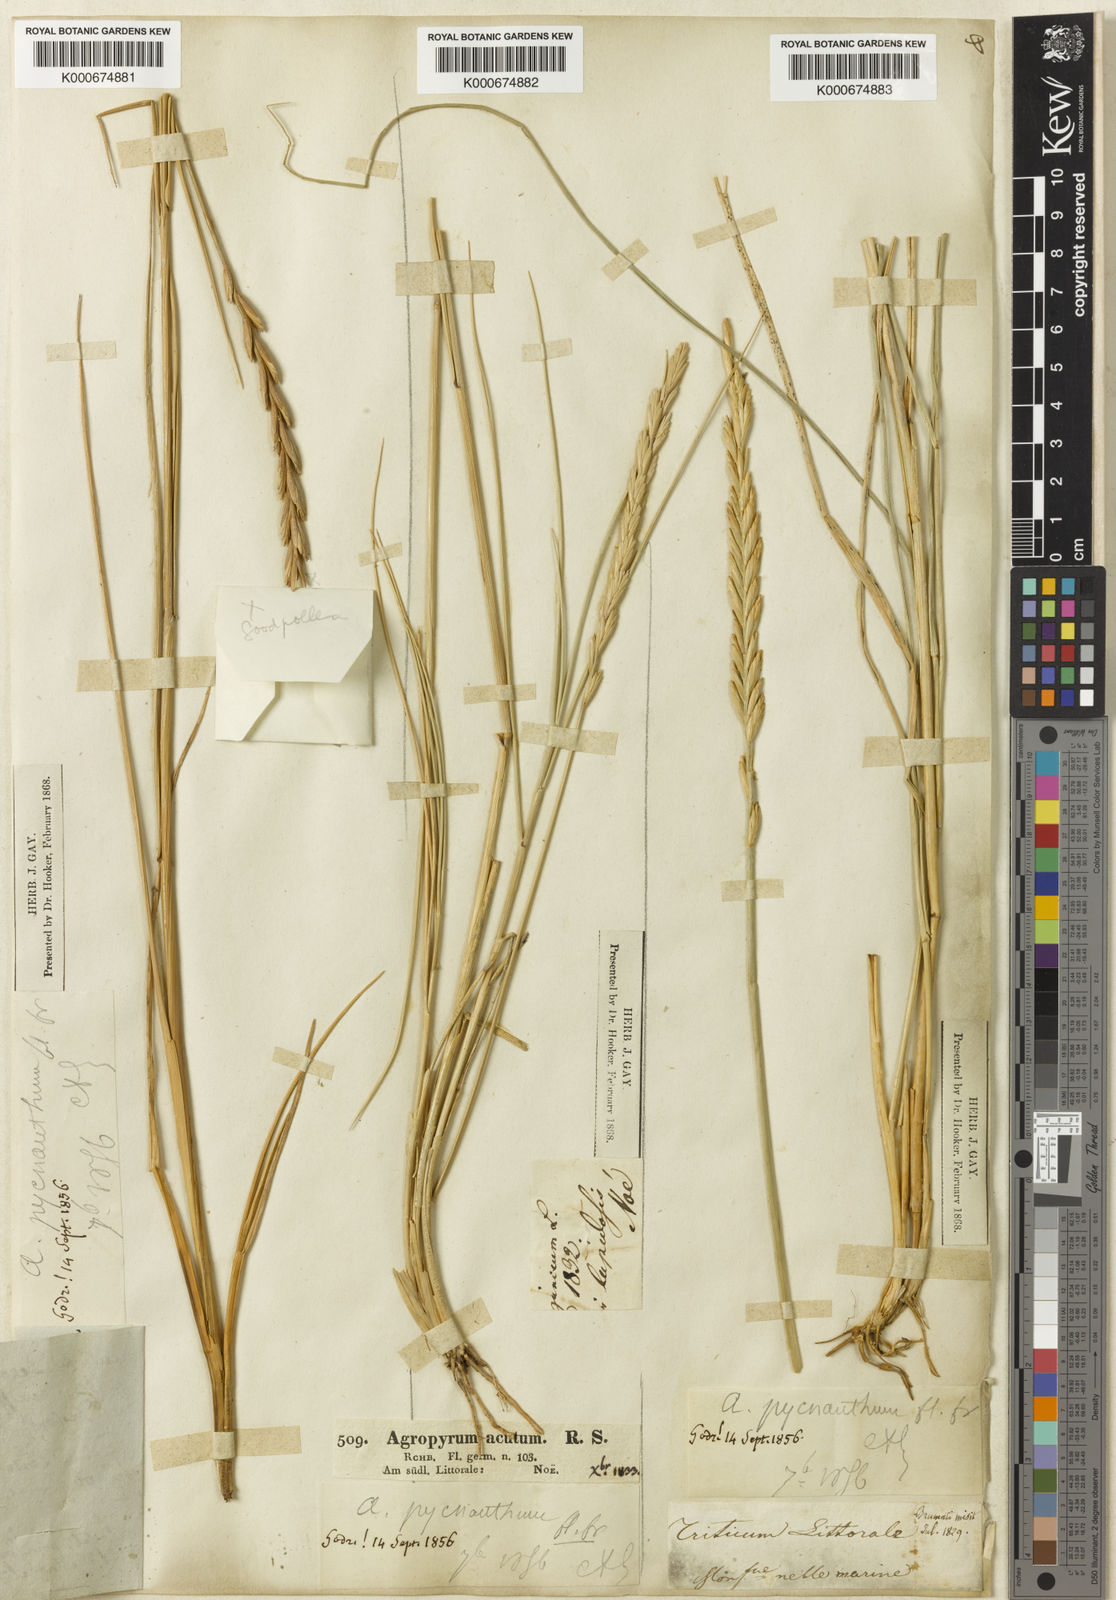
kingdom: Plantae
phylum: Tracheophyta
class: Liliopsida
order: Poales
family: Poaceae
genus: Elymus
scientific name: Elymus
